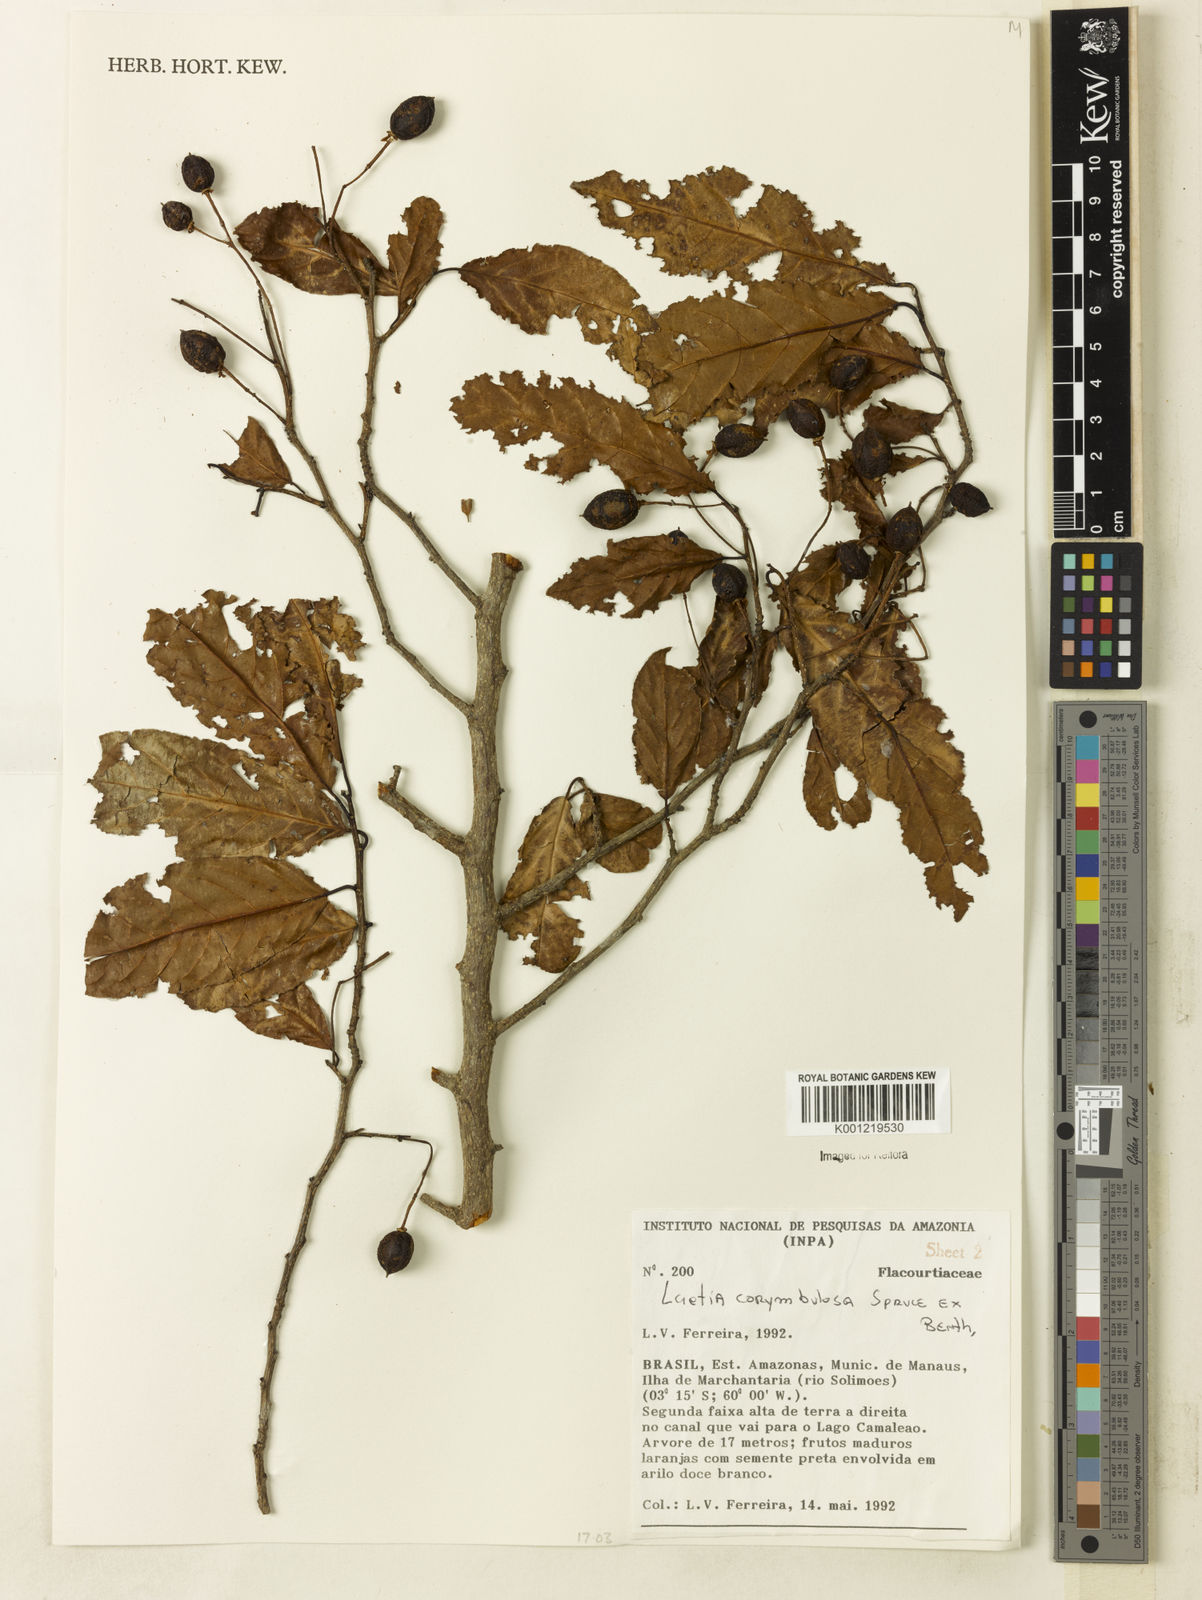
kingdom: Plantae
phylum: Tracheophyta
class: Magnoliopsida
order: Malpighiales
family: Salicaceae
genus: Casearia
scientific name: Casearia corymbulosa
